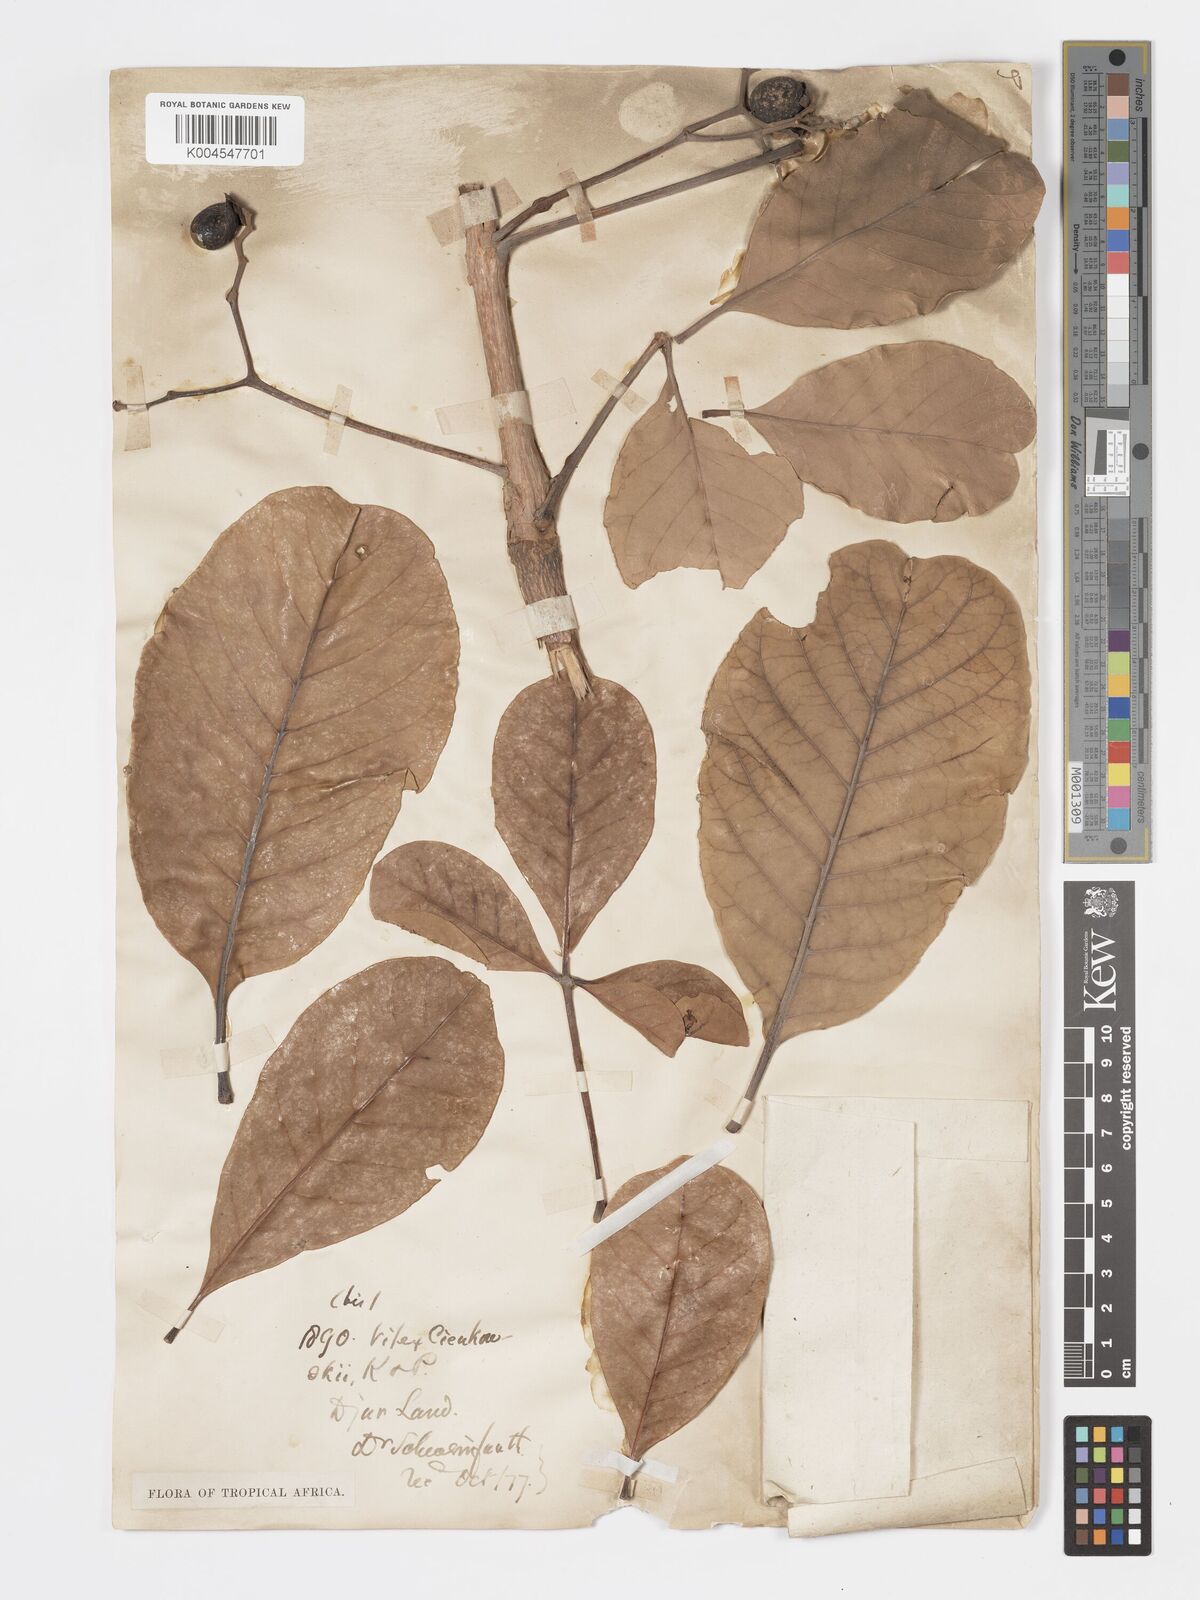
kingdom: Plantae
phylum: Tracheophyta
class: Magnoliopsida
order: Lamiales
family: Lamiaceae
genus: Vitex
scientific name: Vitex doniana
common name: Black plum
